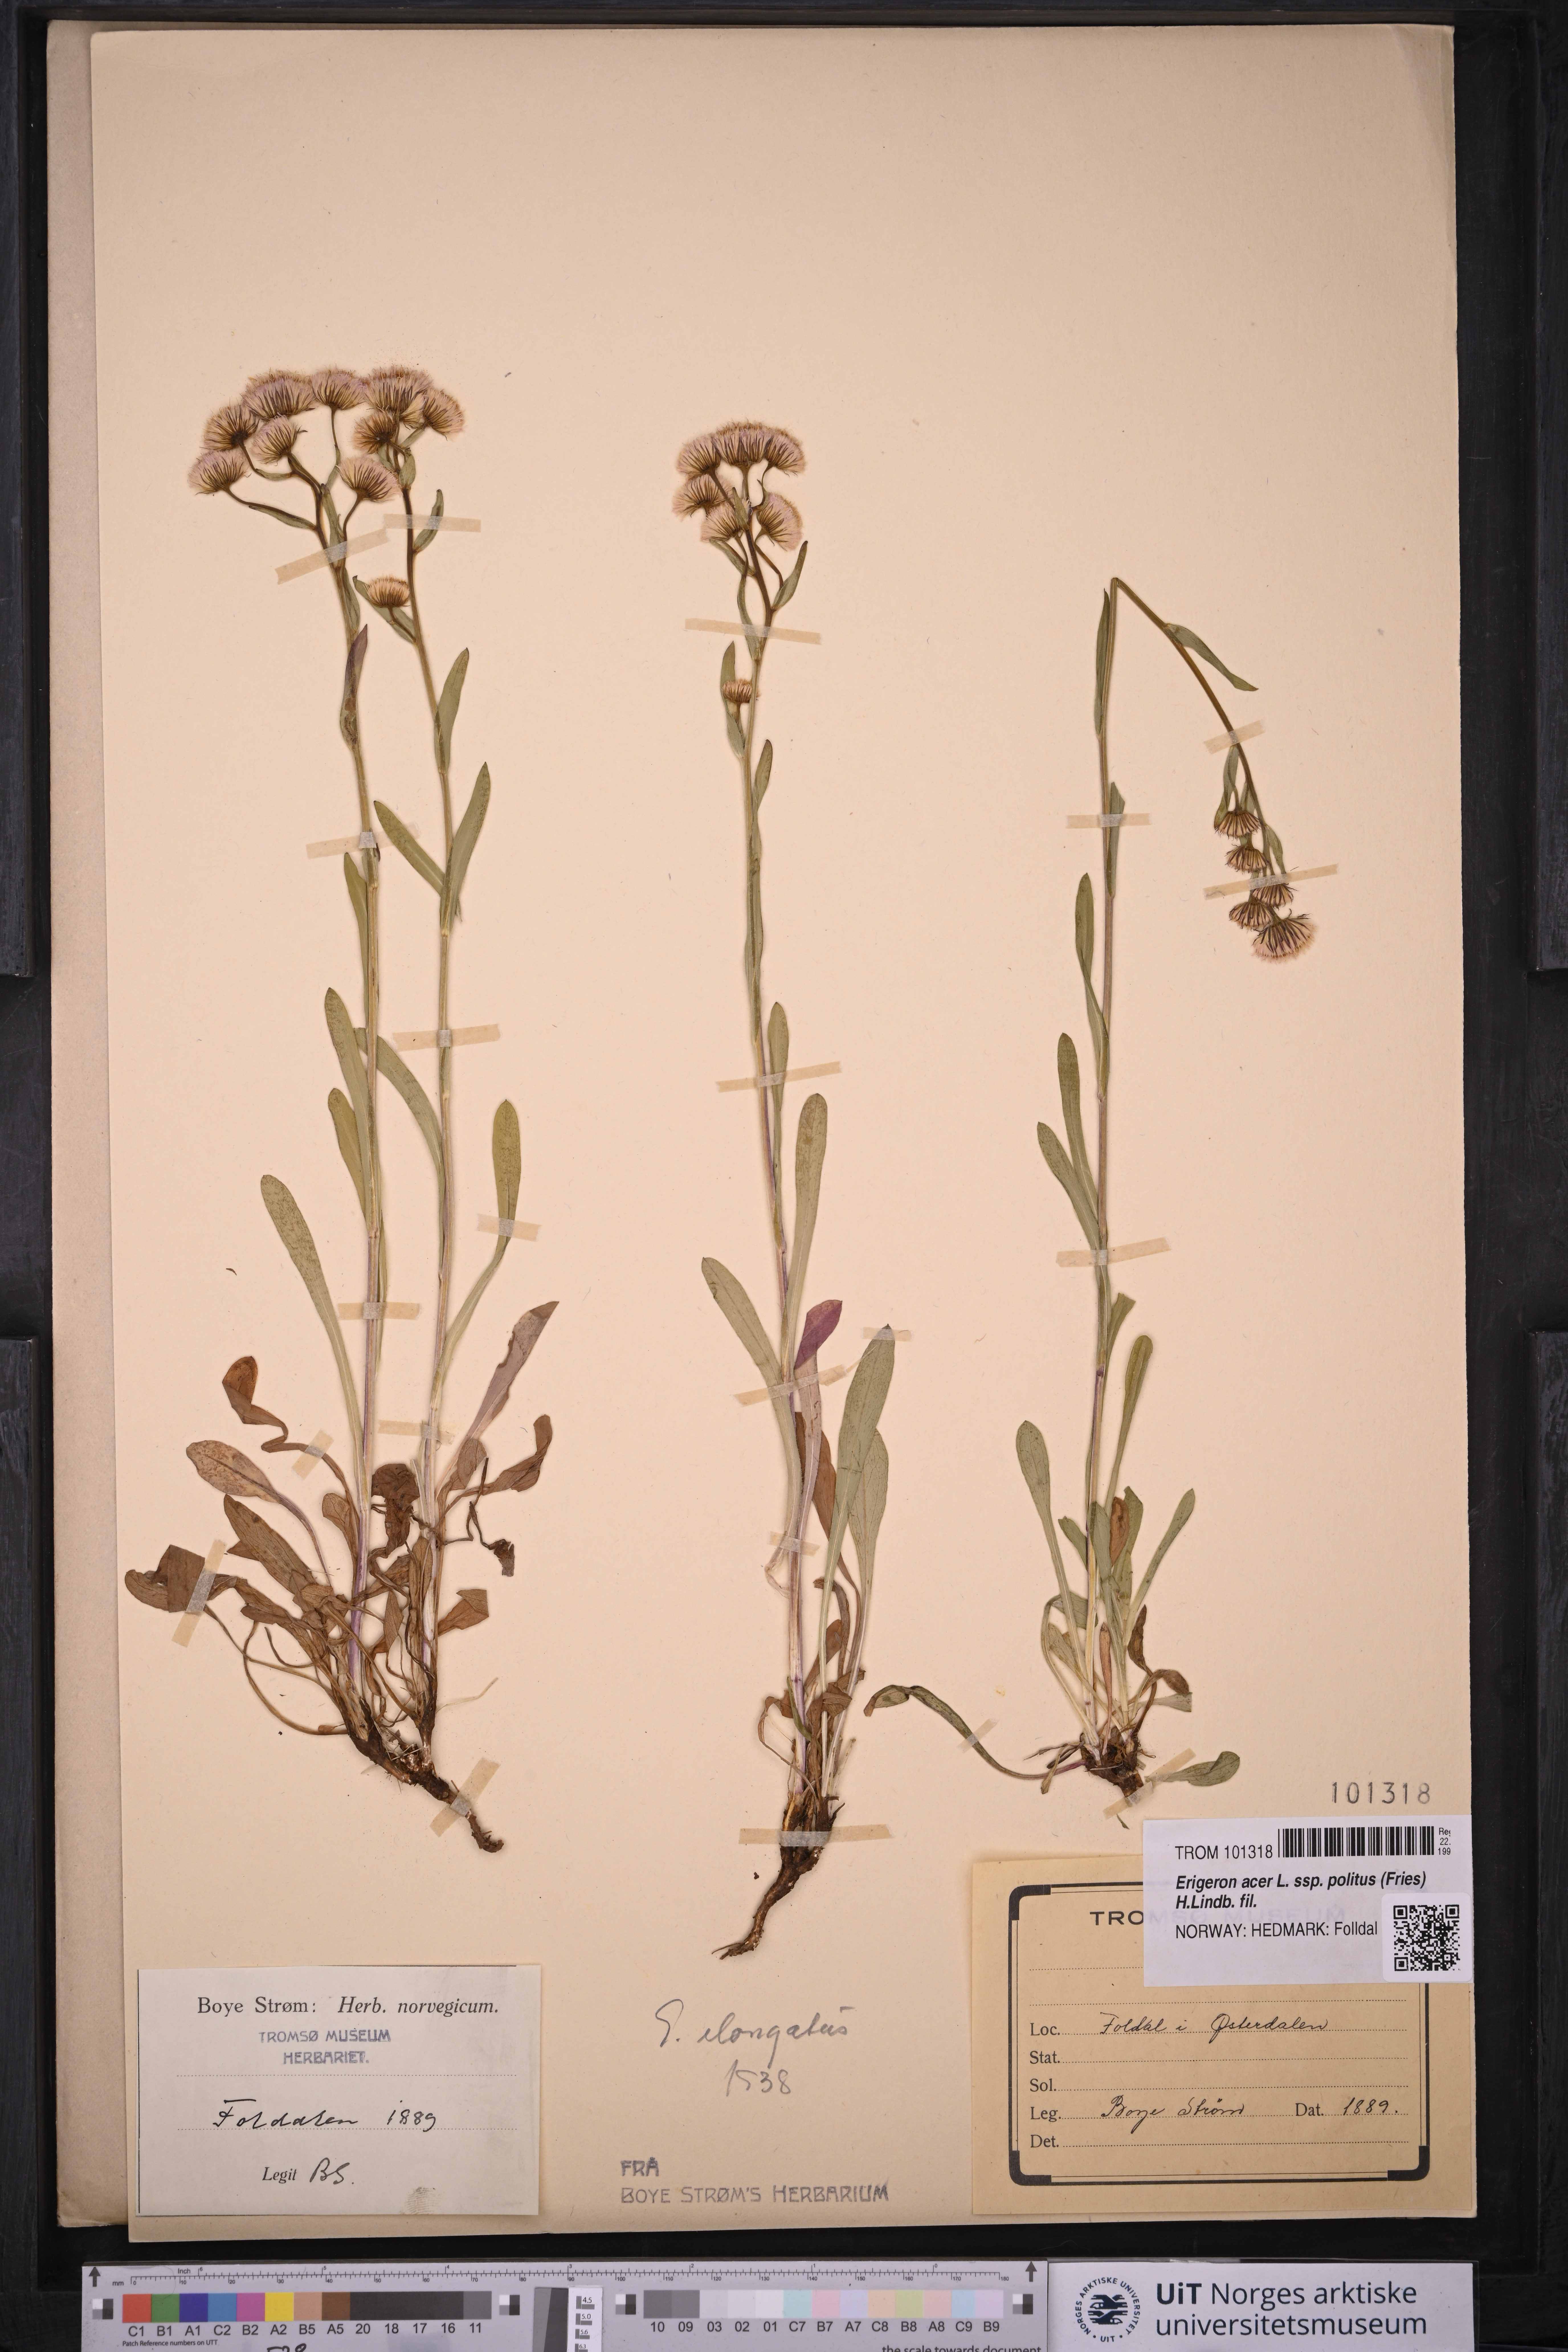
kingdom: Plantae
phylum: Tracheophyta
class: Magnoliopsida
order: Asterales
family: Asteraceae
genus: Erigeron
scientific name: Erigeron politus
